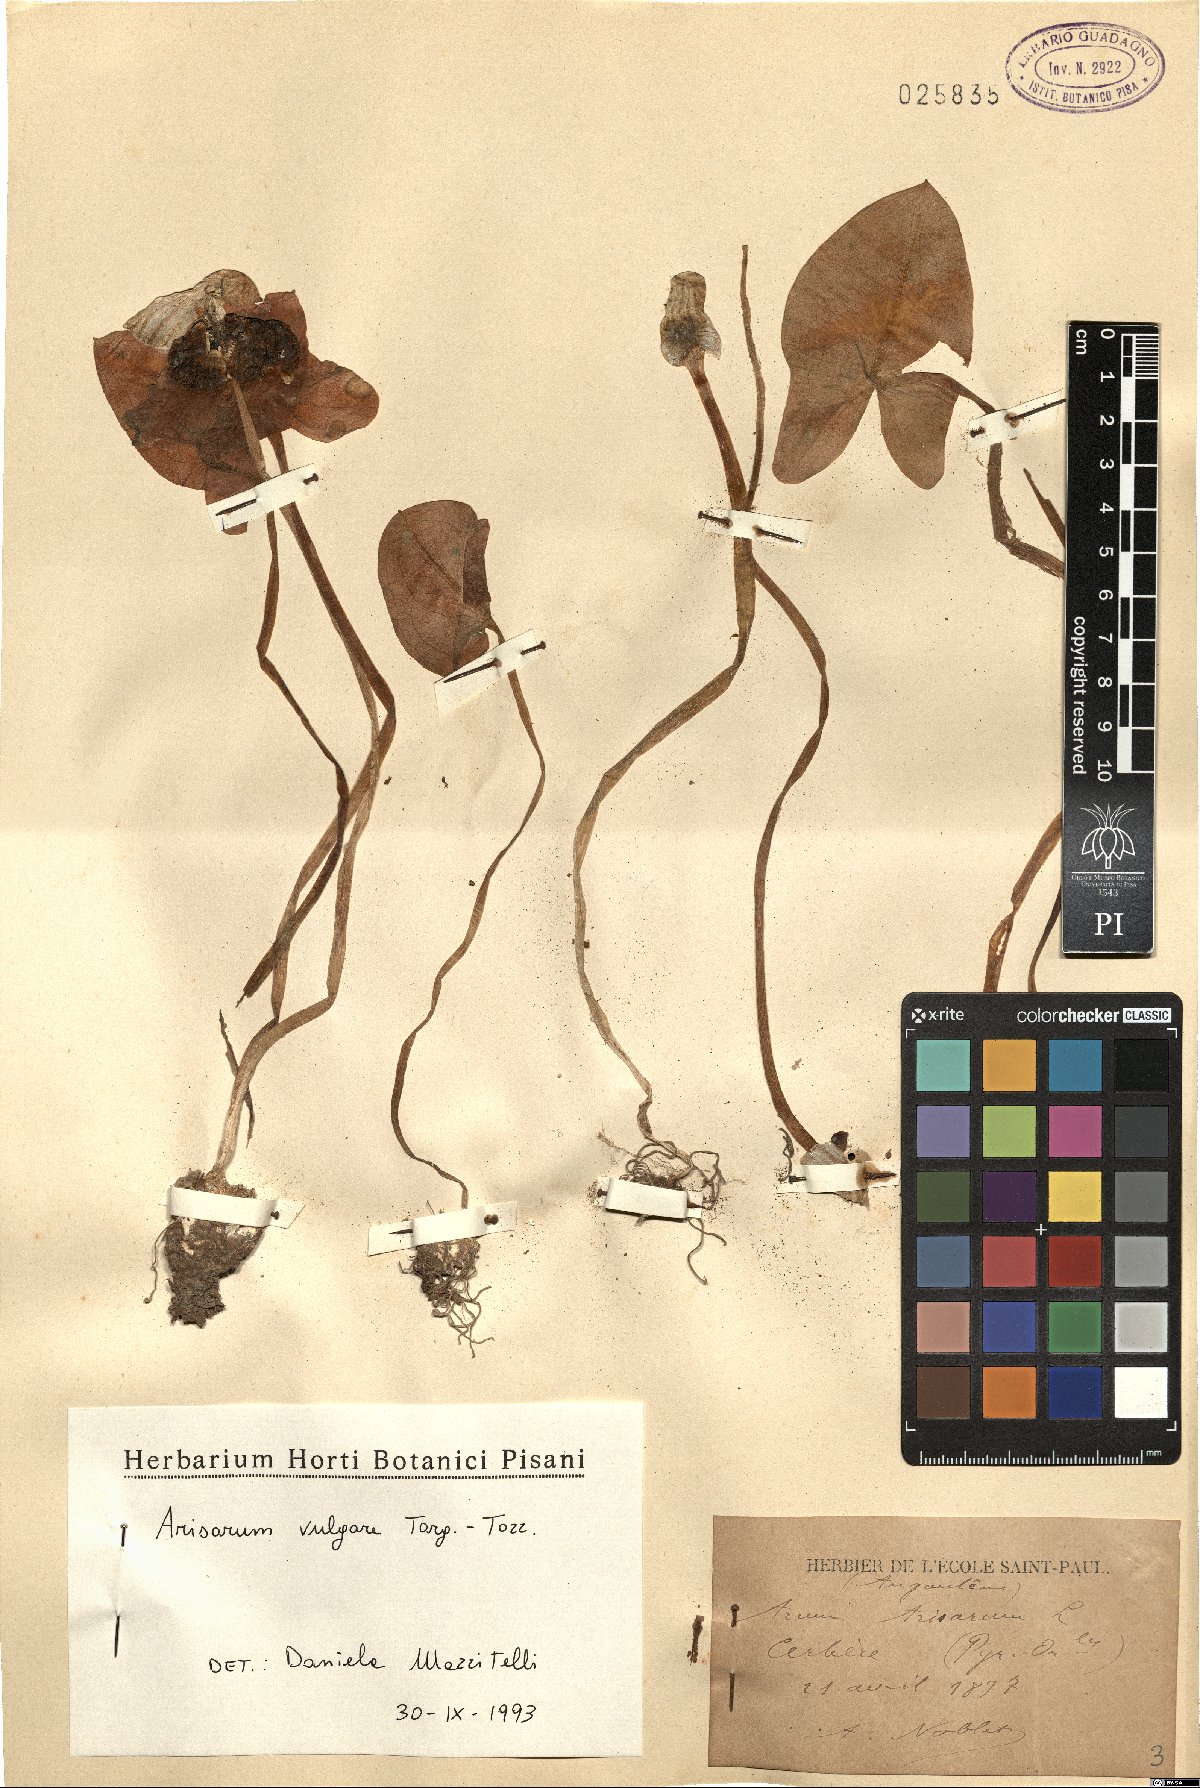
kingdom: Plantae
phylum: Tracheophyta
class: Liliopsida
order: Alismatales
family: Araceae
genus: Arisarum
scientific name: Arisarum vulgare
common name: Common arisarum
